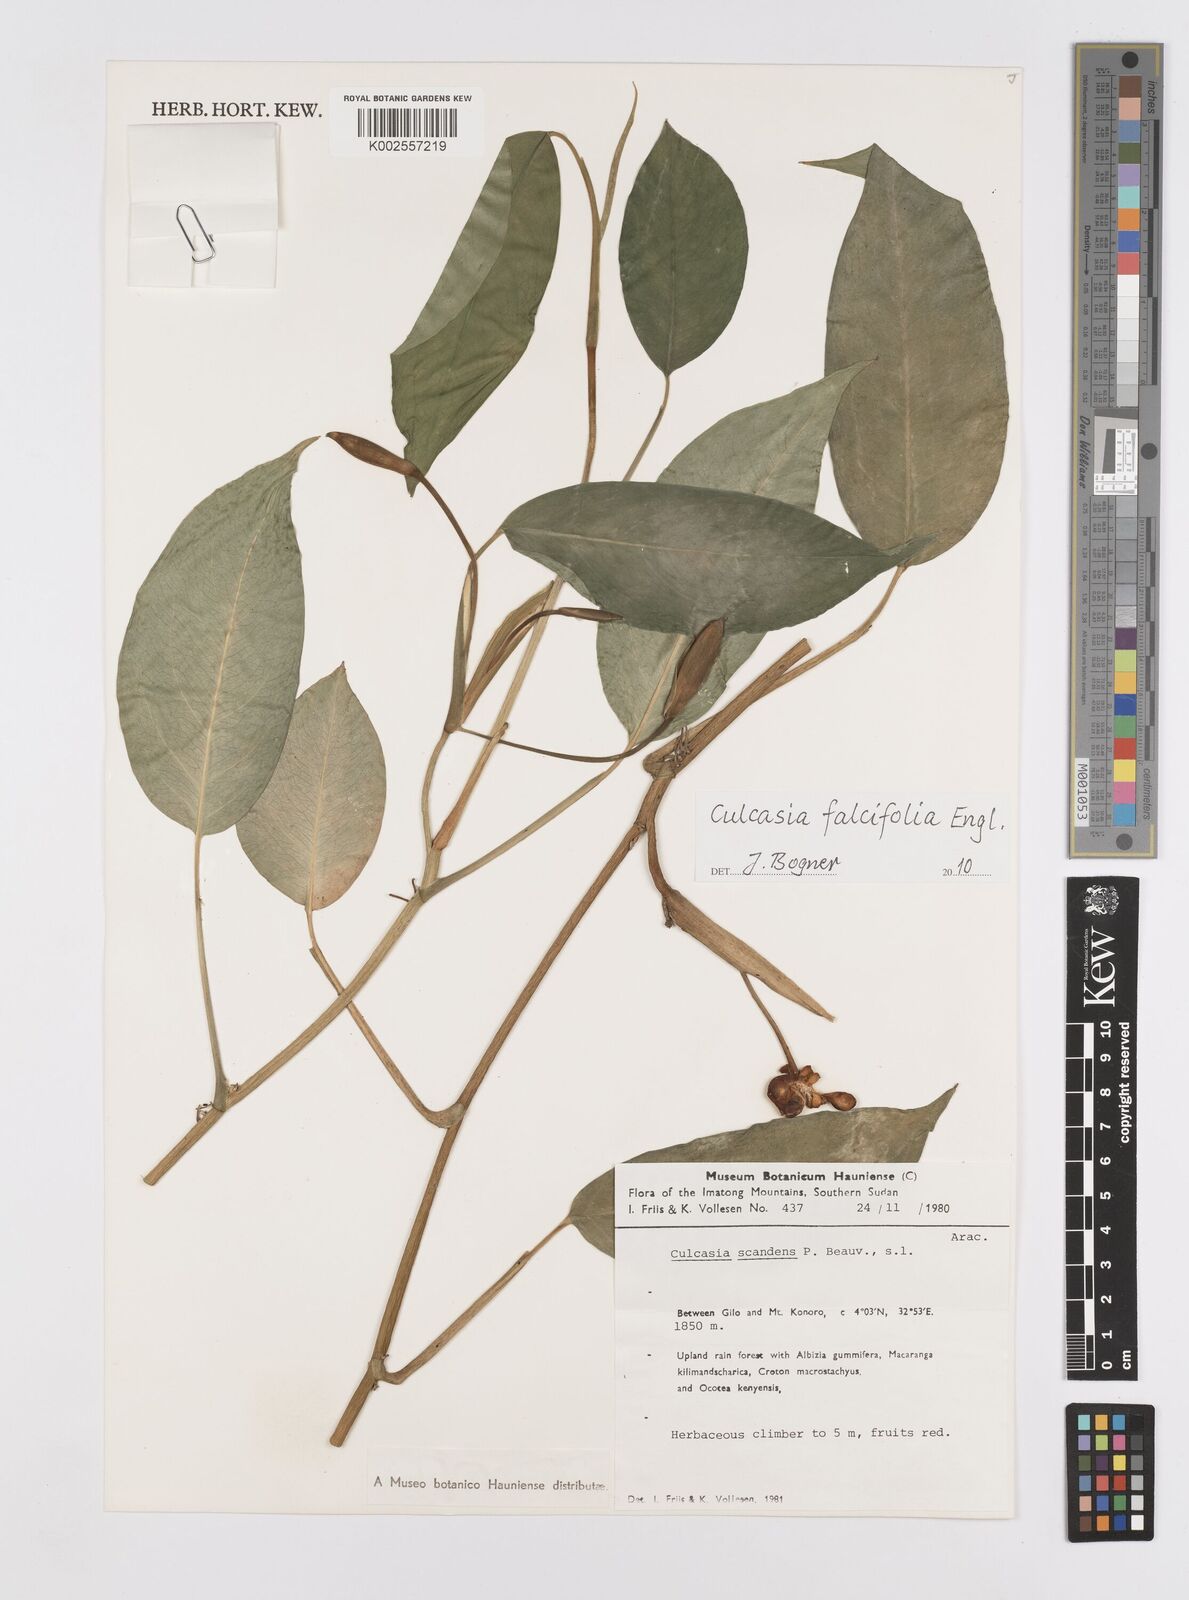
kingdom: Plantae
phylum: Tracheophyta
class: Liliopsida
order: Alismatales
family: Araceae
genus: Culcasia
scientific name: Culcasia falcifolia
